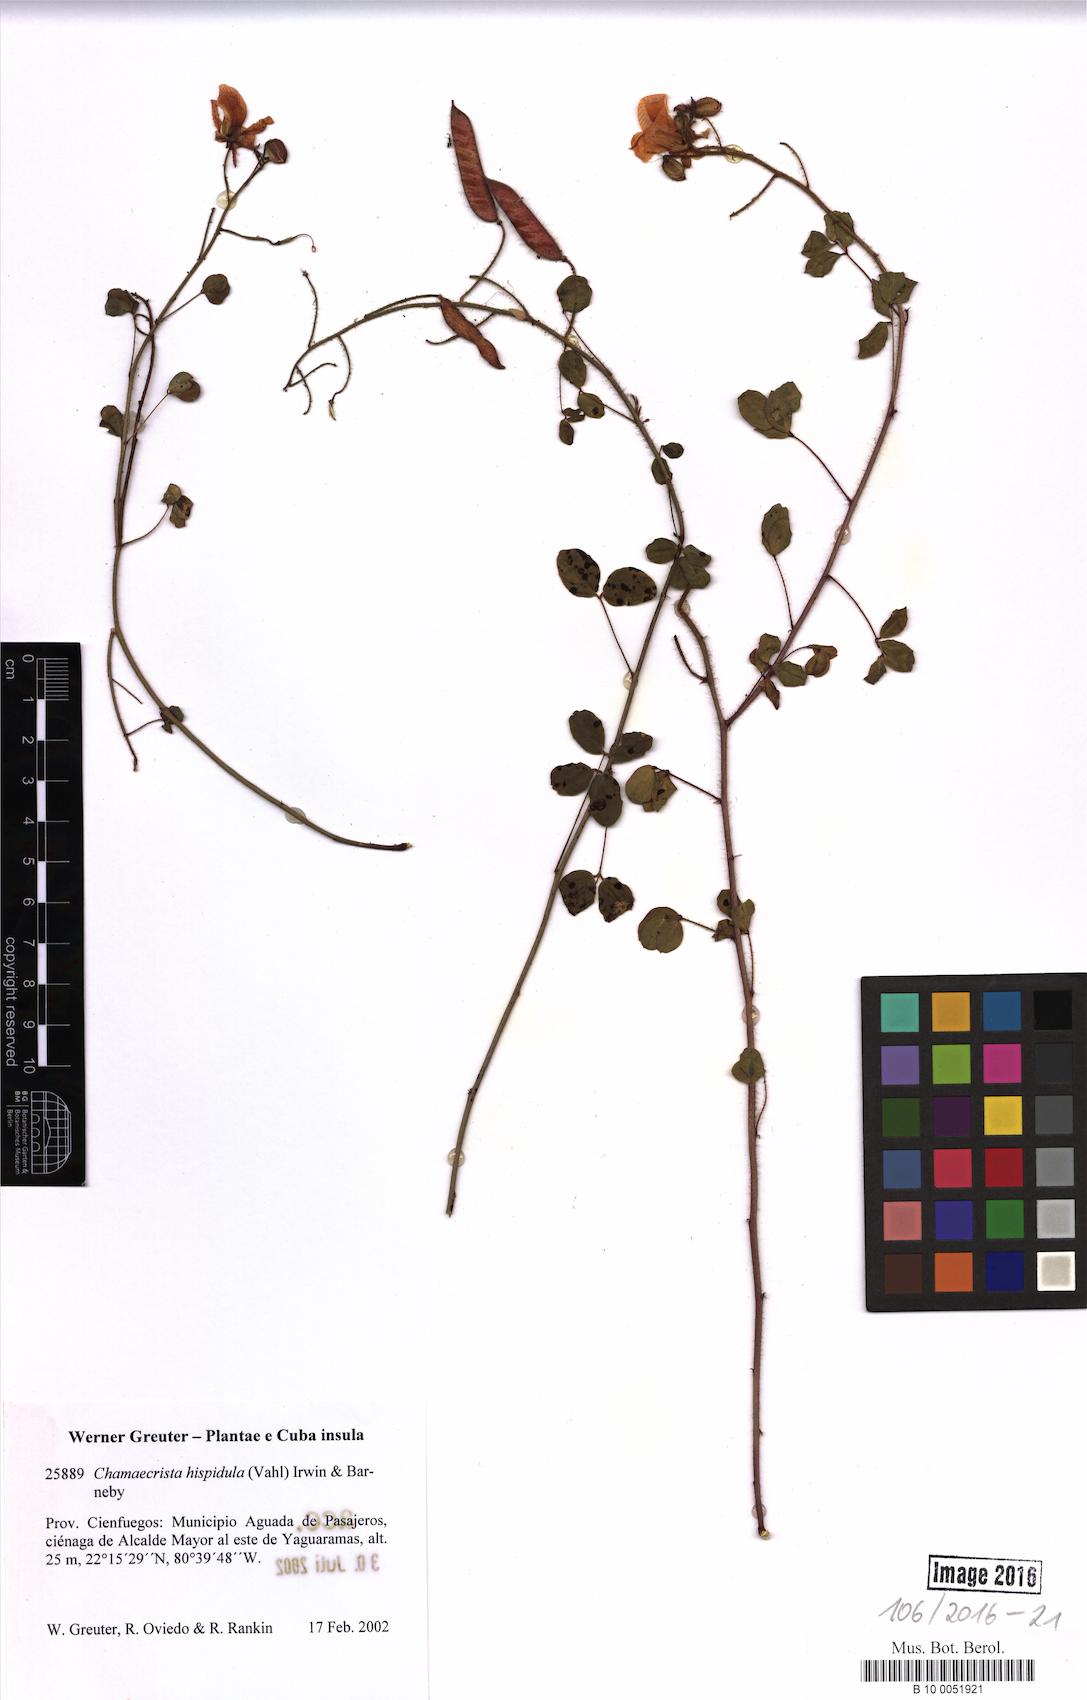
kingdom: Plantae
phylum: Tracheophyta
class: Magnoliopsida
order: Fabales
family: Fabaceae
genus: Chamaecrista
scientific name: Chamaecrista hispidula
